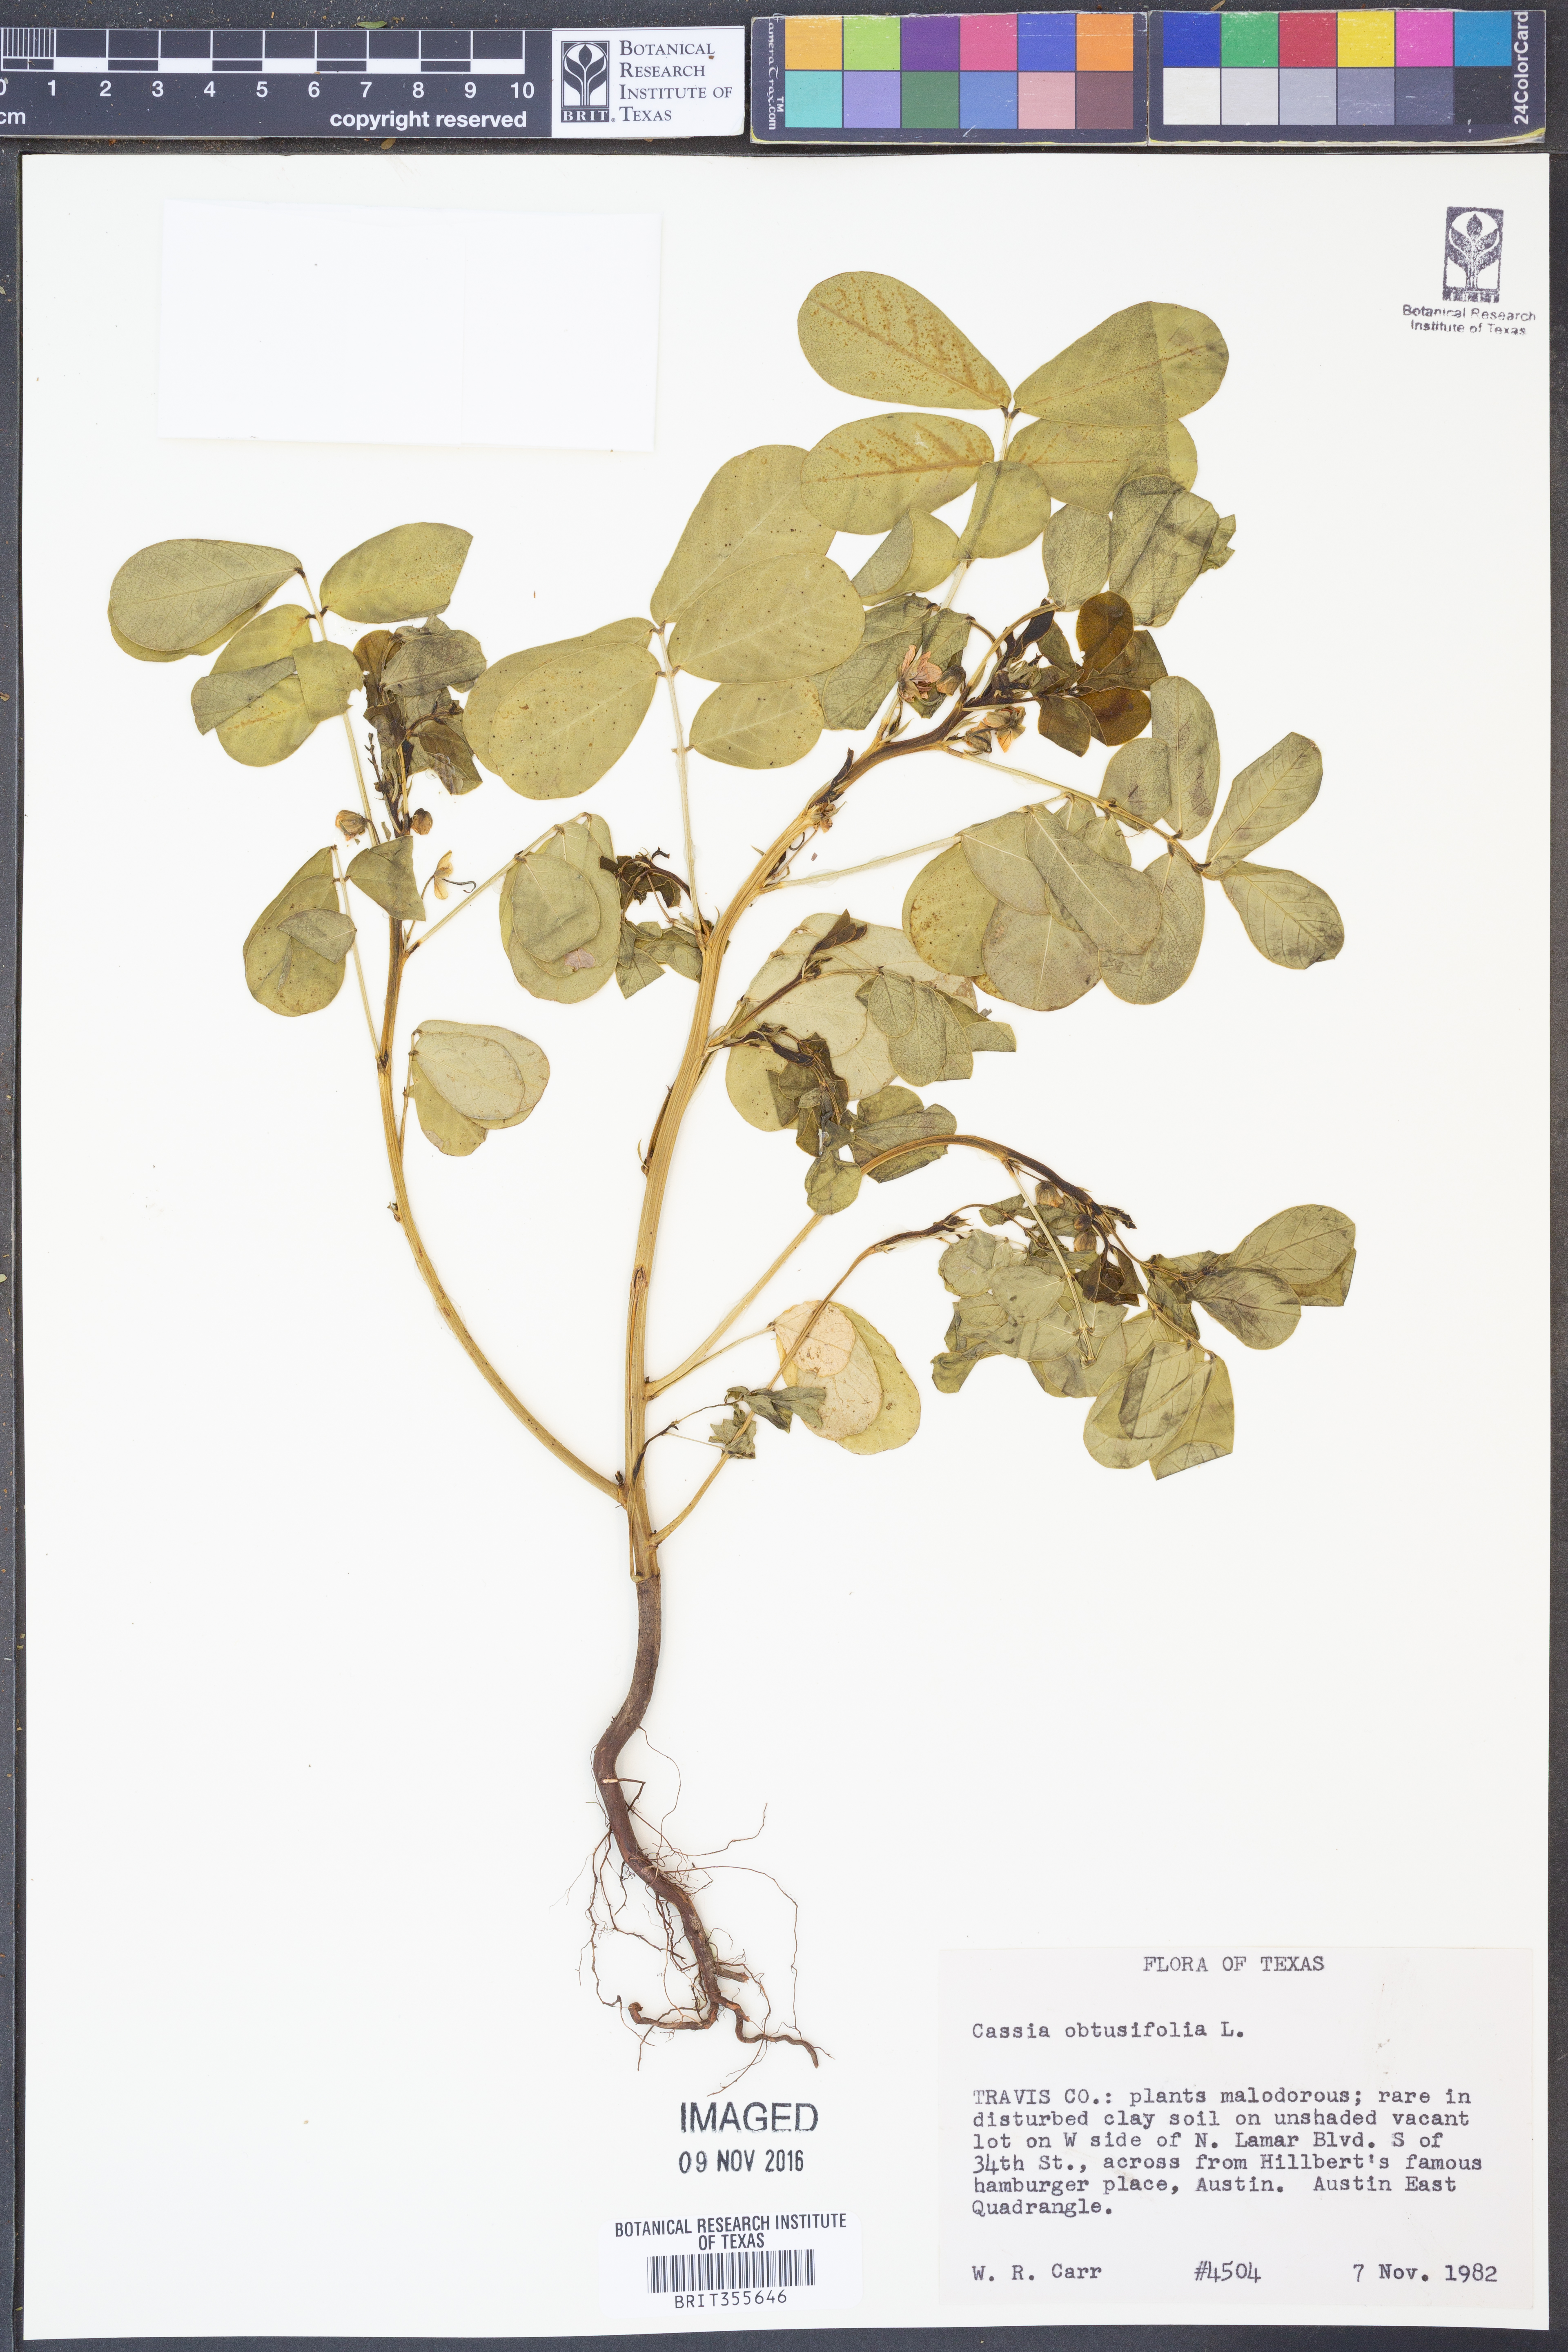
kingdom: Plantae
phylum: Tracheophyta
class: Magnoliopsida
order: Fabales
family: Fabaceae
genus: Senna
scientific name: Senna obtusifolia
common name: Java-bean
